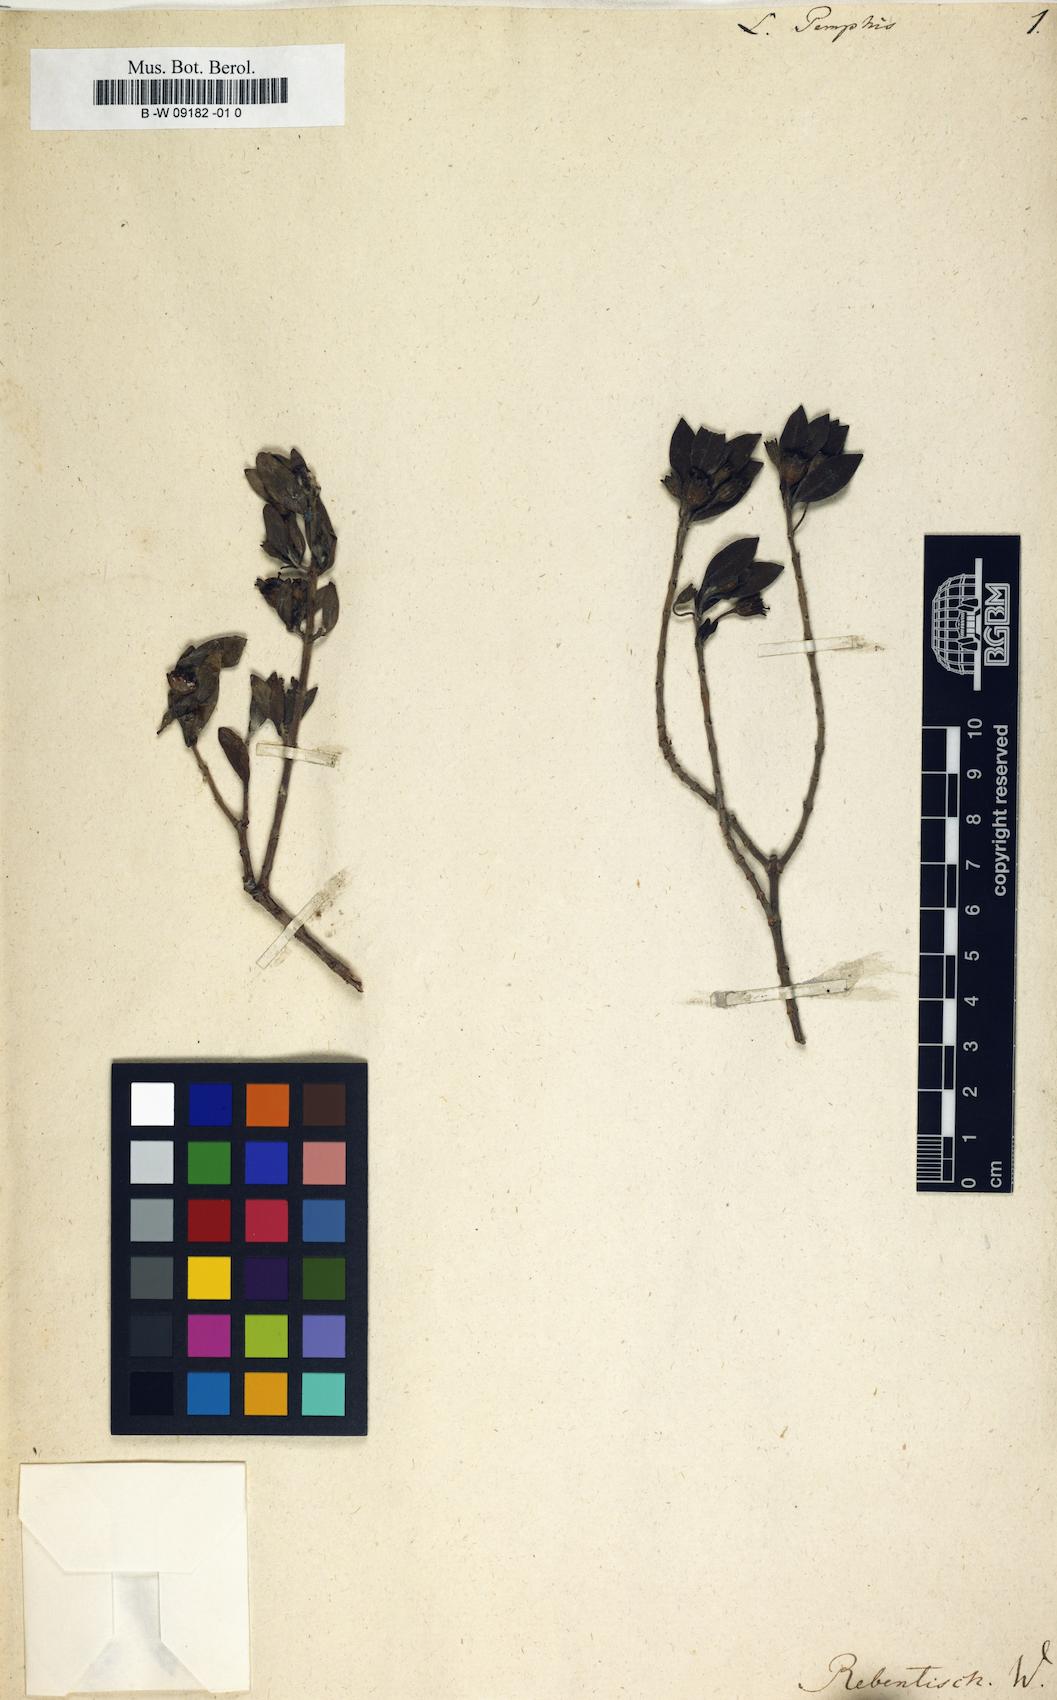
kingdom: Plantae
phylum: Tracheophyta
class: Magnoliopsida
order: Myrtales
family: Lythraceae
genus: Pemphis
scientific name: Pemphis acidula
